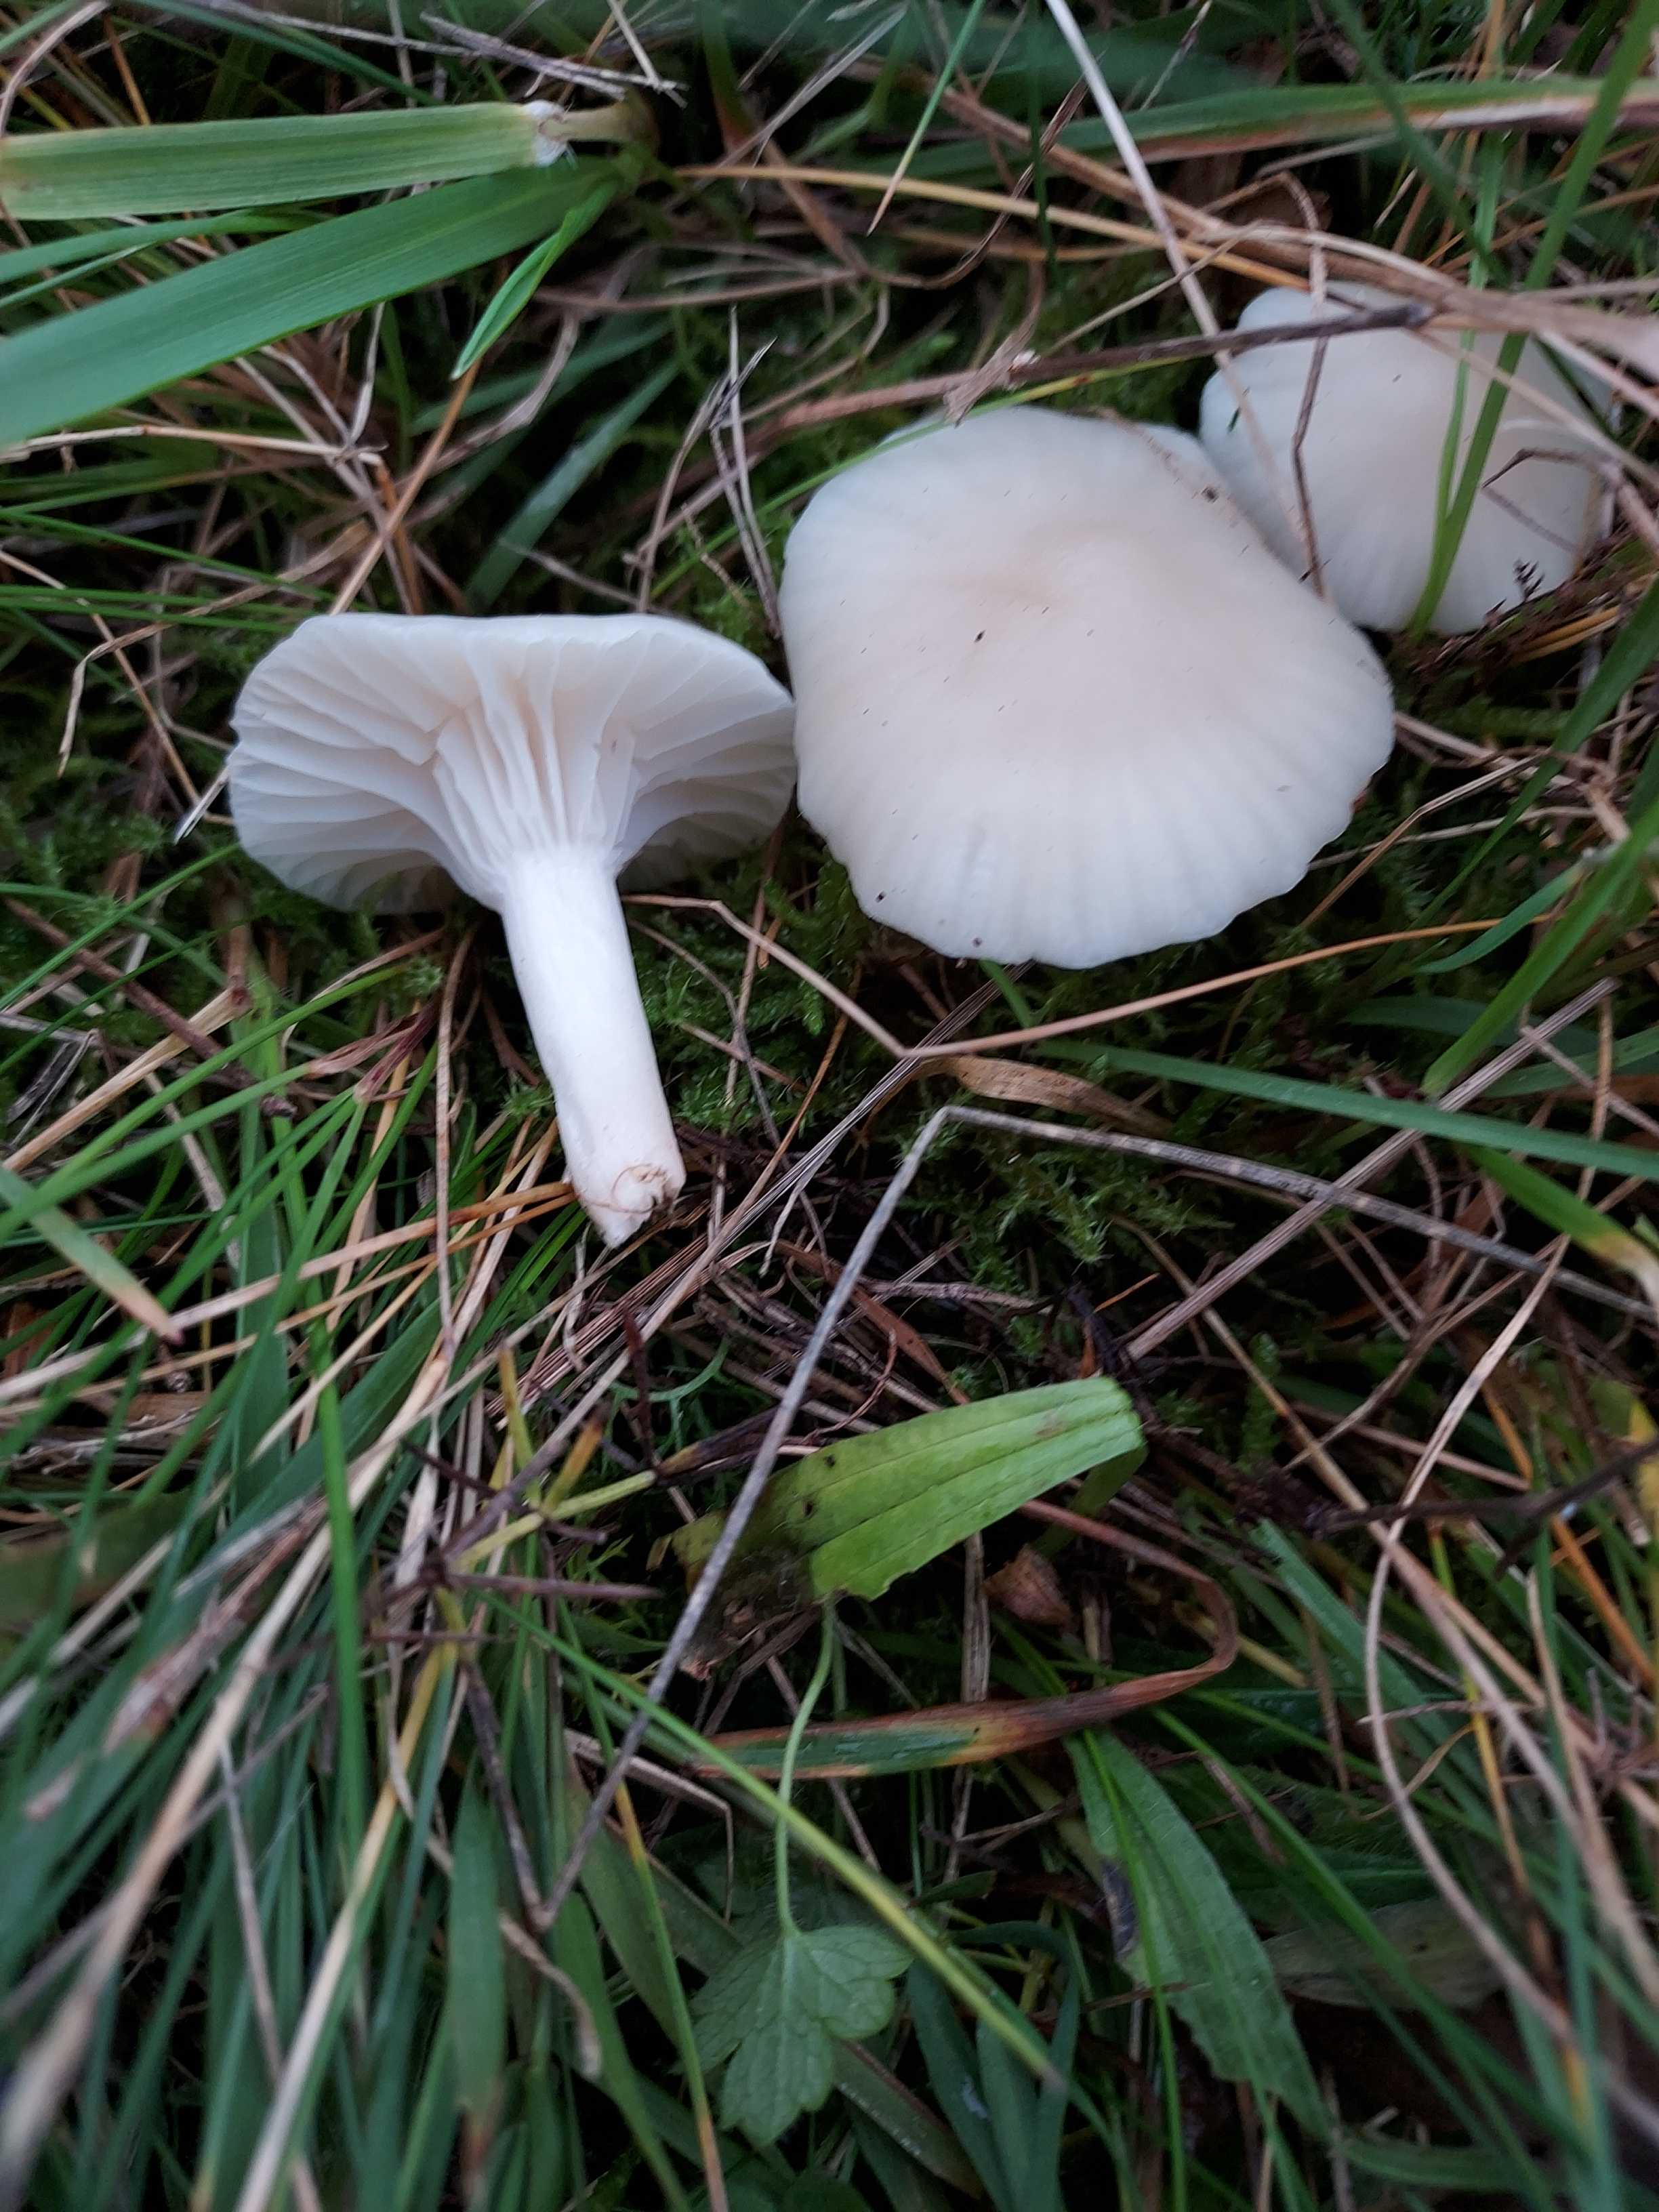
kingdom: Fungi
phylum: Basidiomycota
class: Agaricomycetes
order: Agaricales
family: Hygrophoraceae
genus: Cuphophyllus
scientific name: Cuphophyllus virgineus
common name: snehvid vokshat
